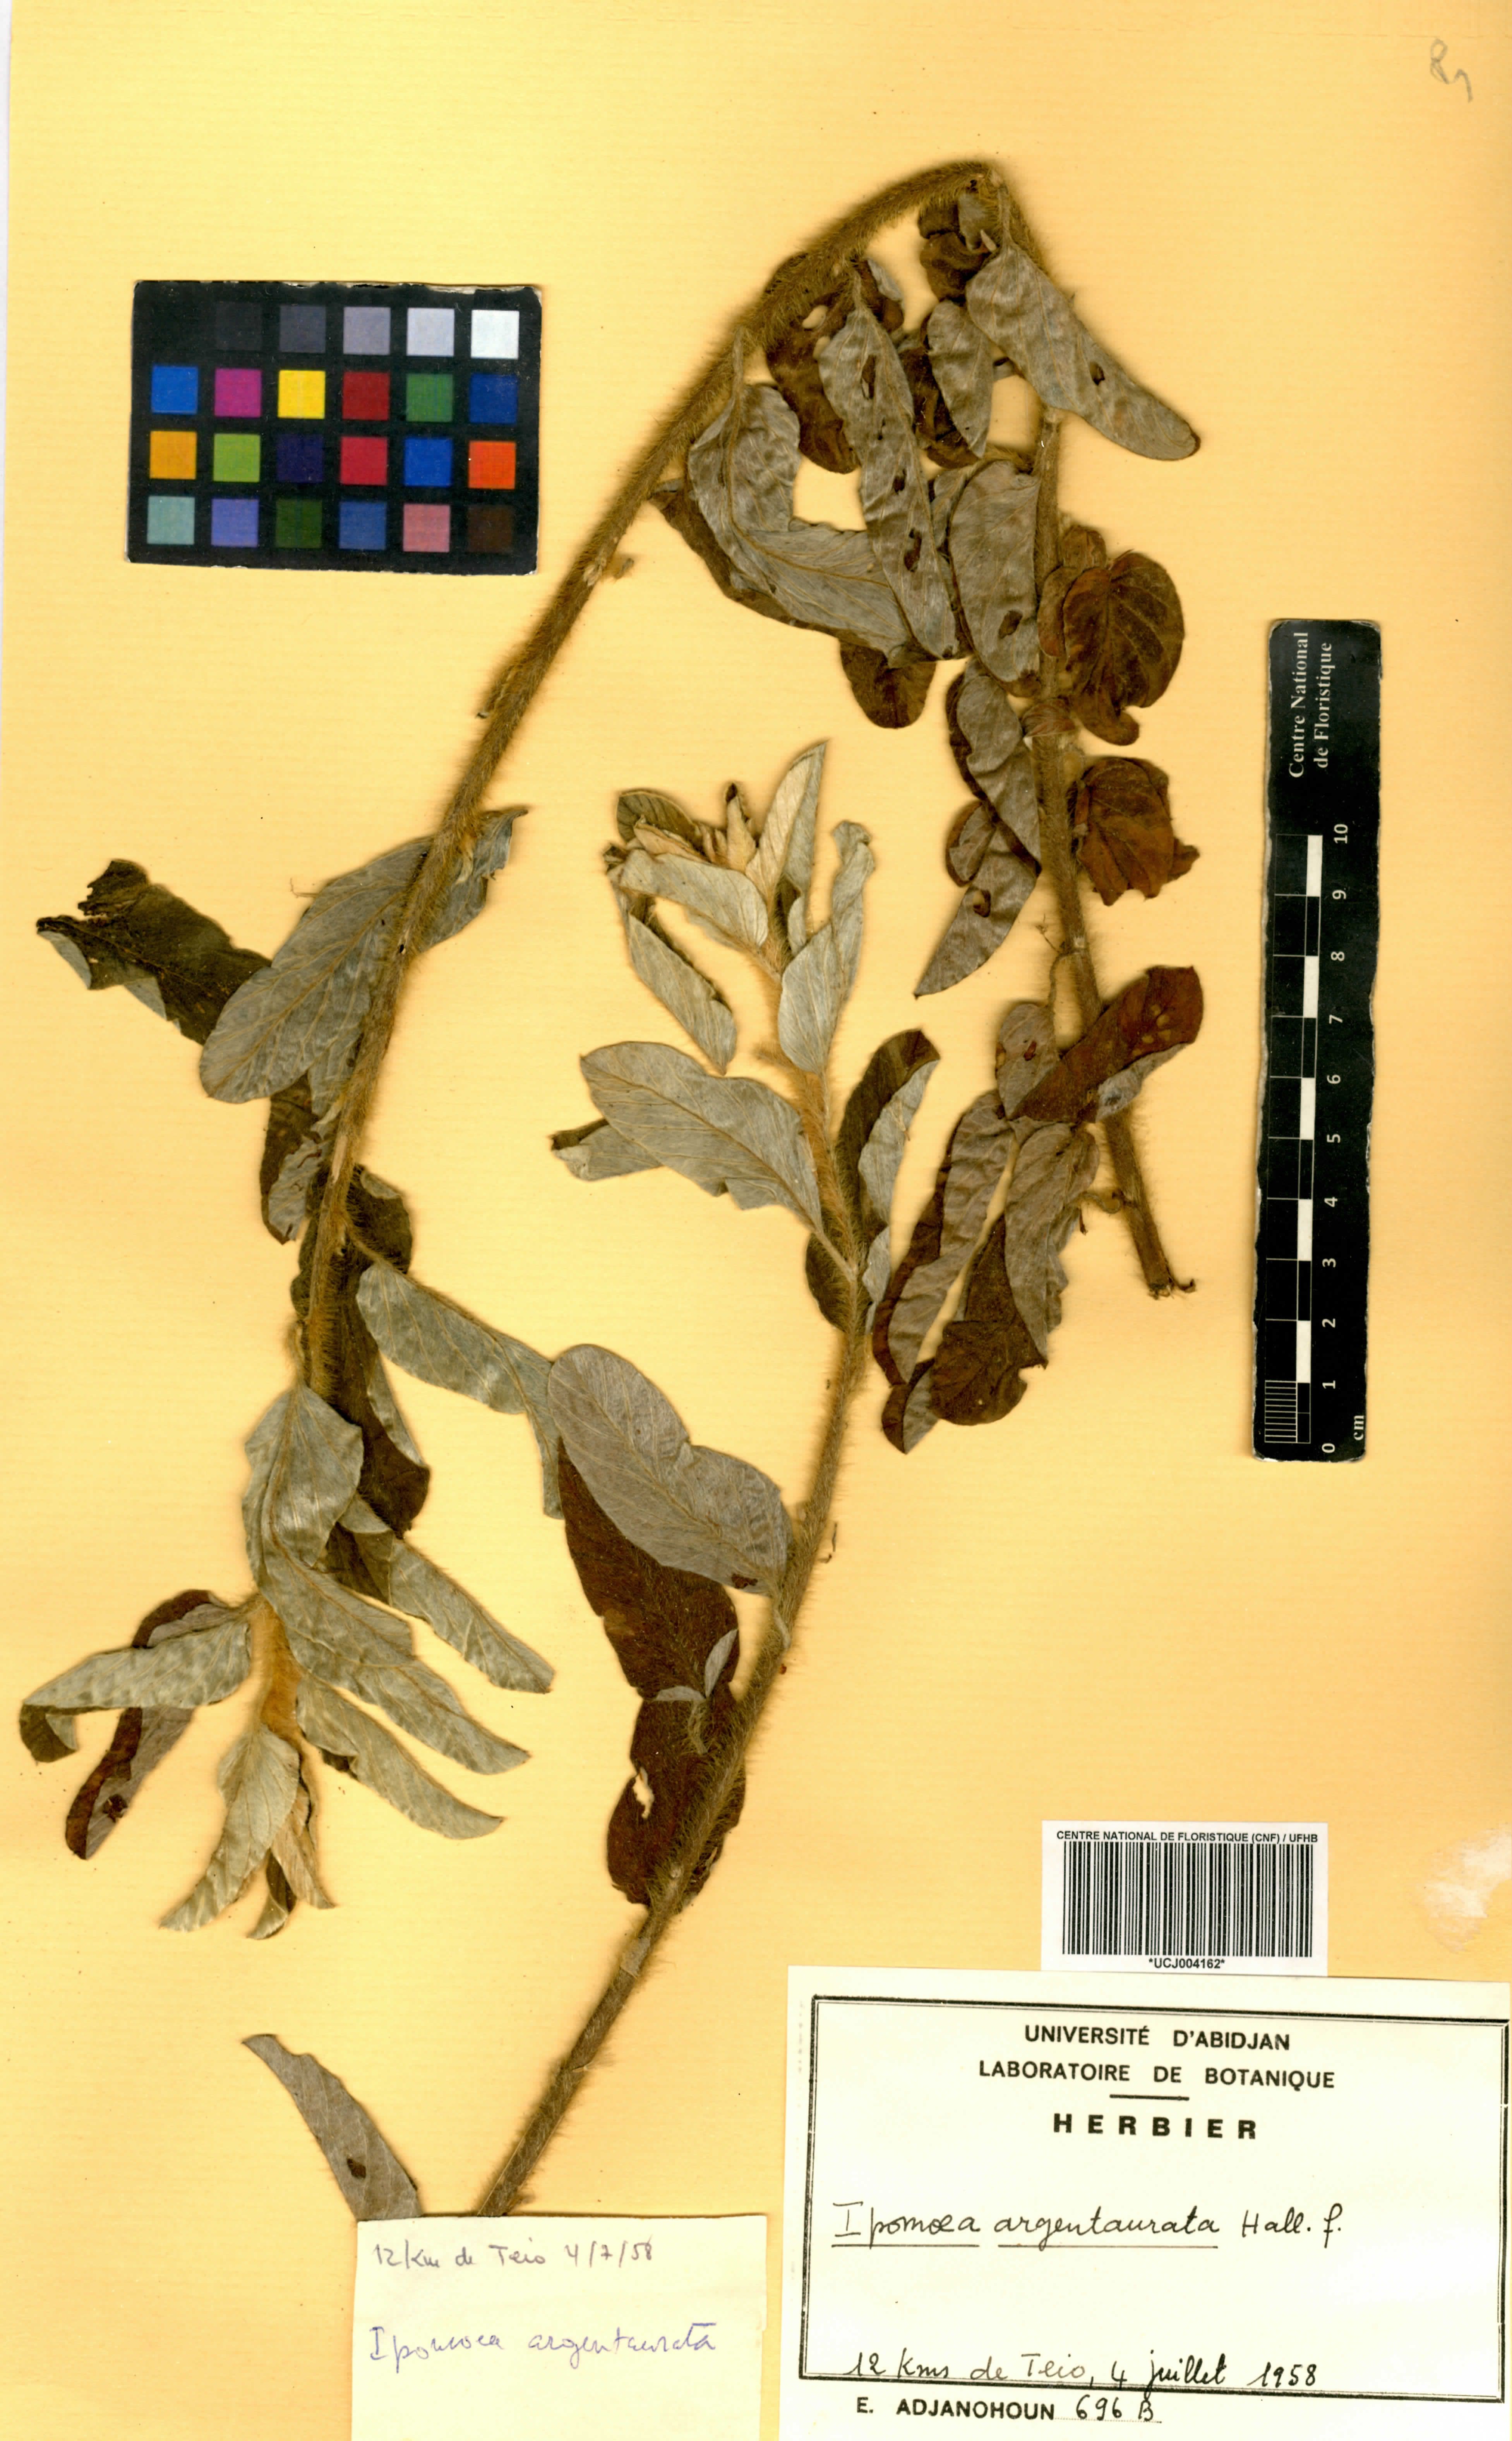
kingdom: Plantae
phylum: Tracheophyta
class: Magnoliopsida
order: Solanales
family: Convolvulaceae
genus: Ipomoea
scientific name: Ipomoea argentaurata
